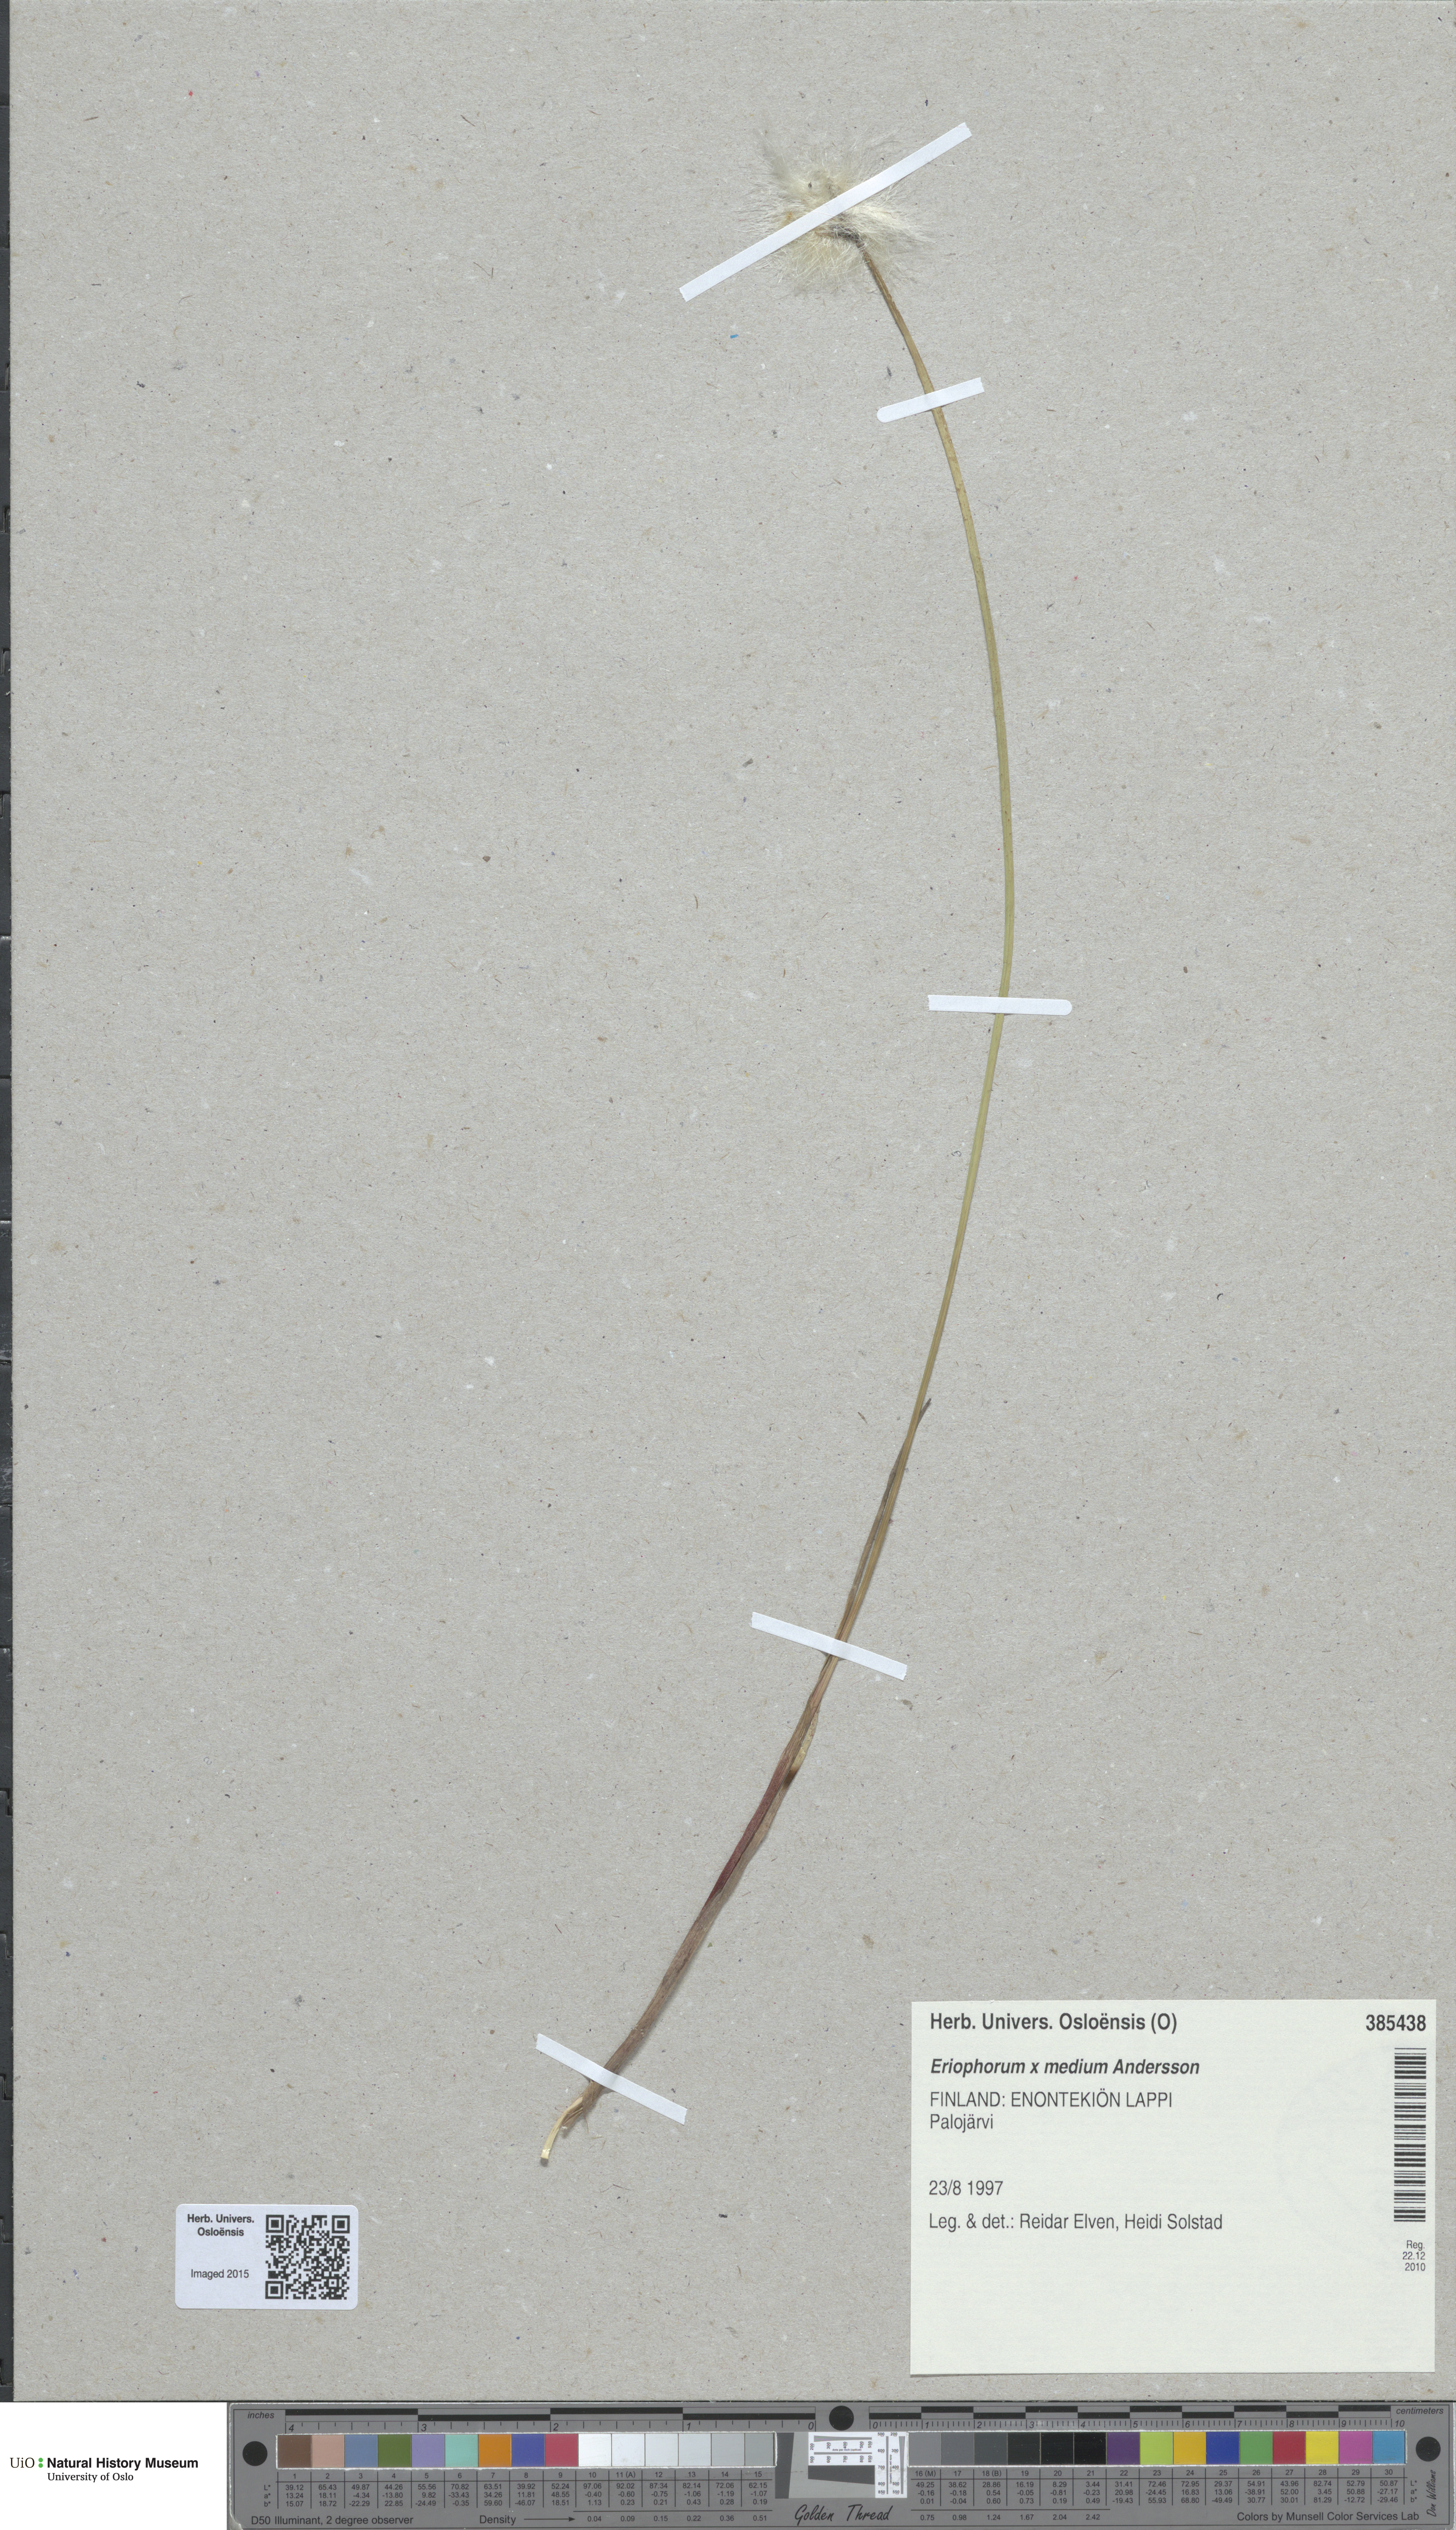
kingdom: Plantae
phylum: Tracheophyta
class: Liliopsida
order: Poales
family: Cyperaceae
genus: Eriophorum
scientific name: Eriophorum medium
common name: Intermediate cottongrass
